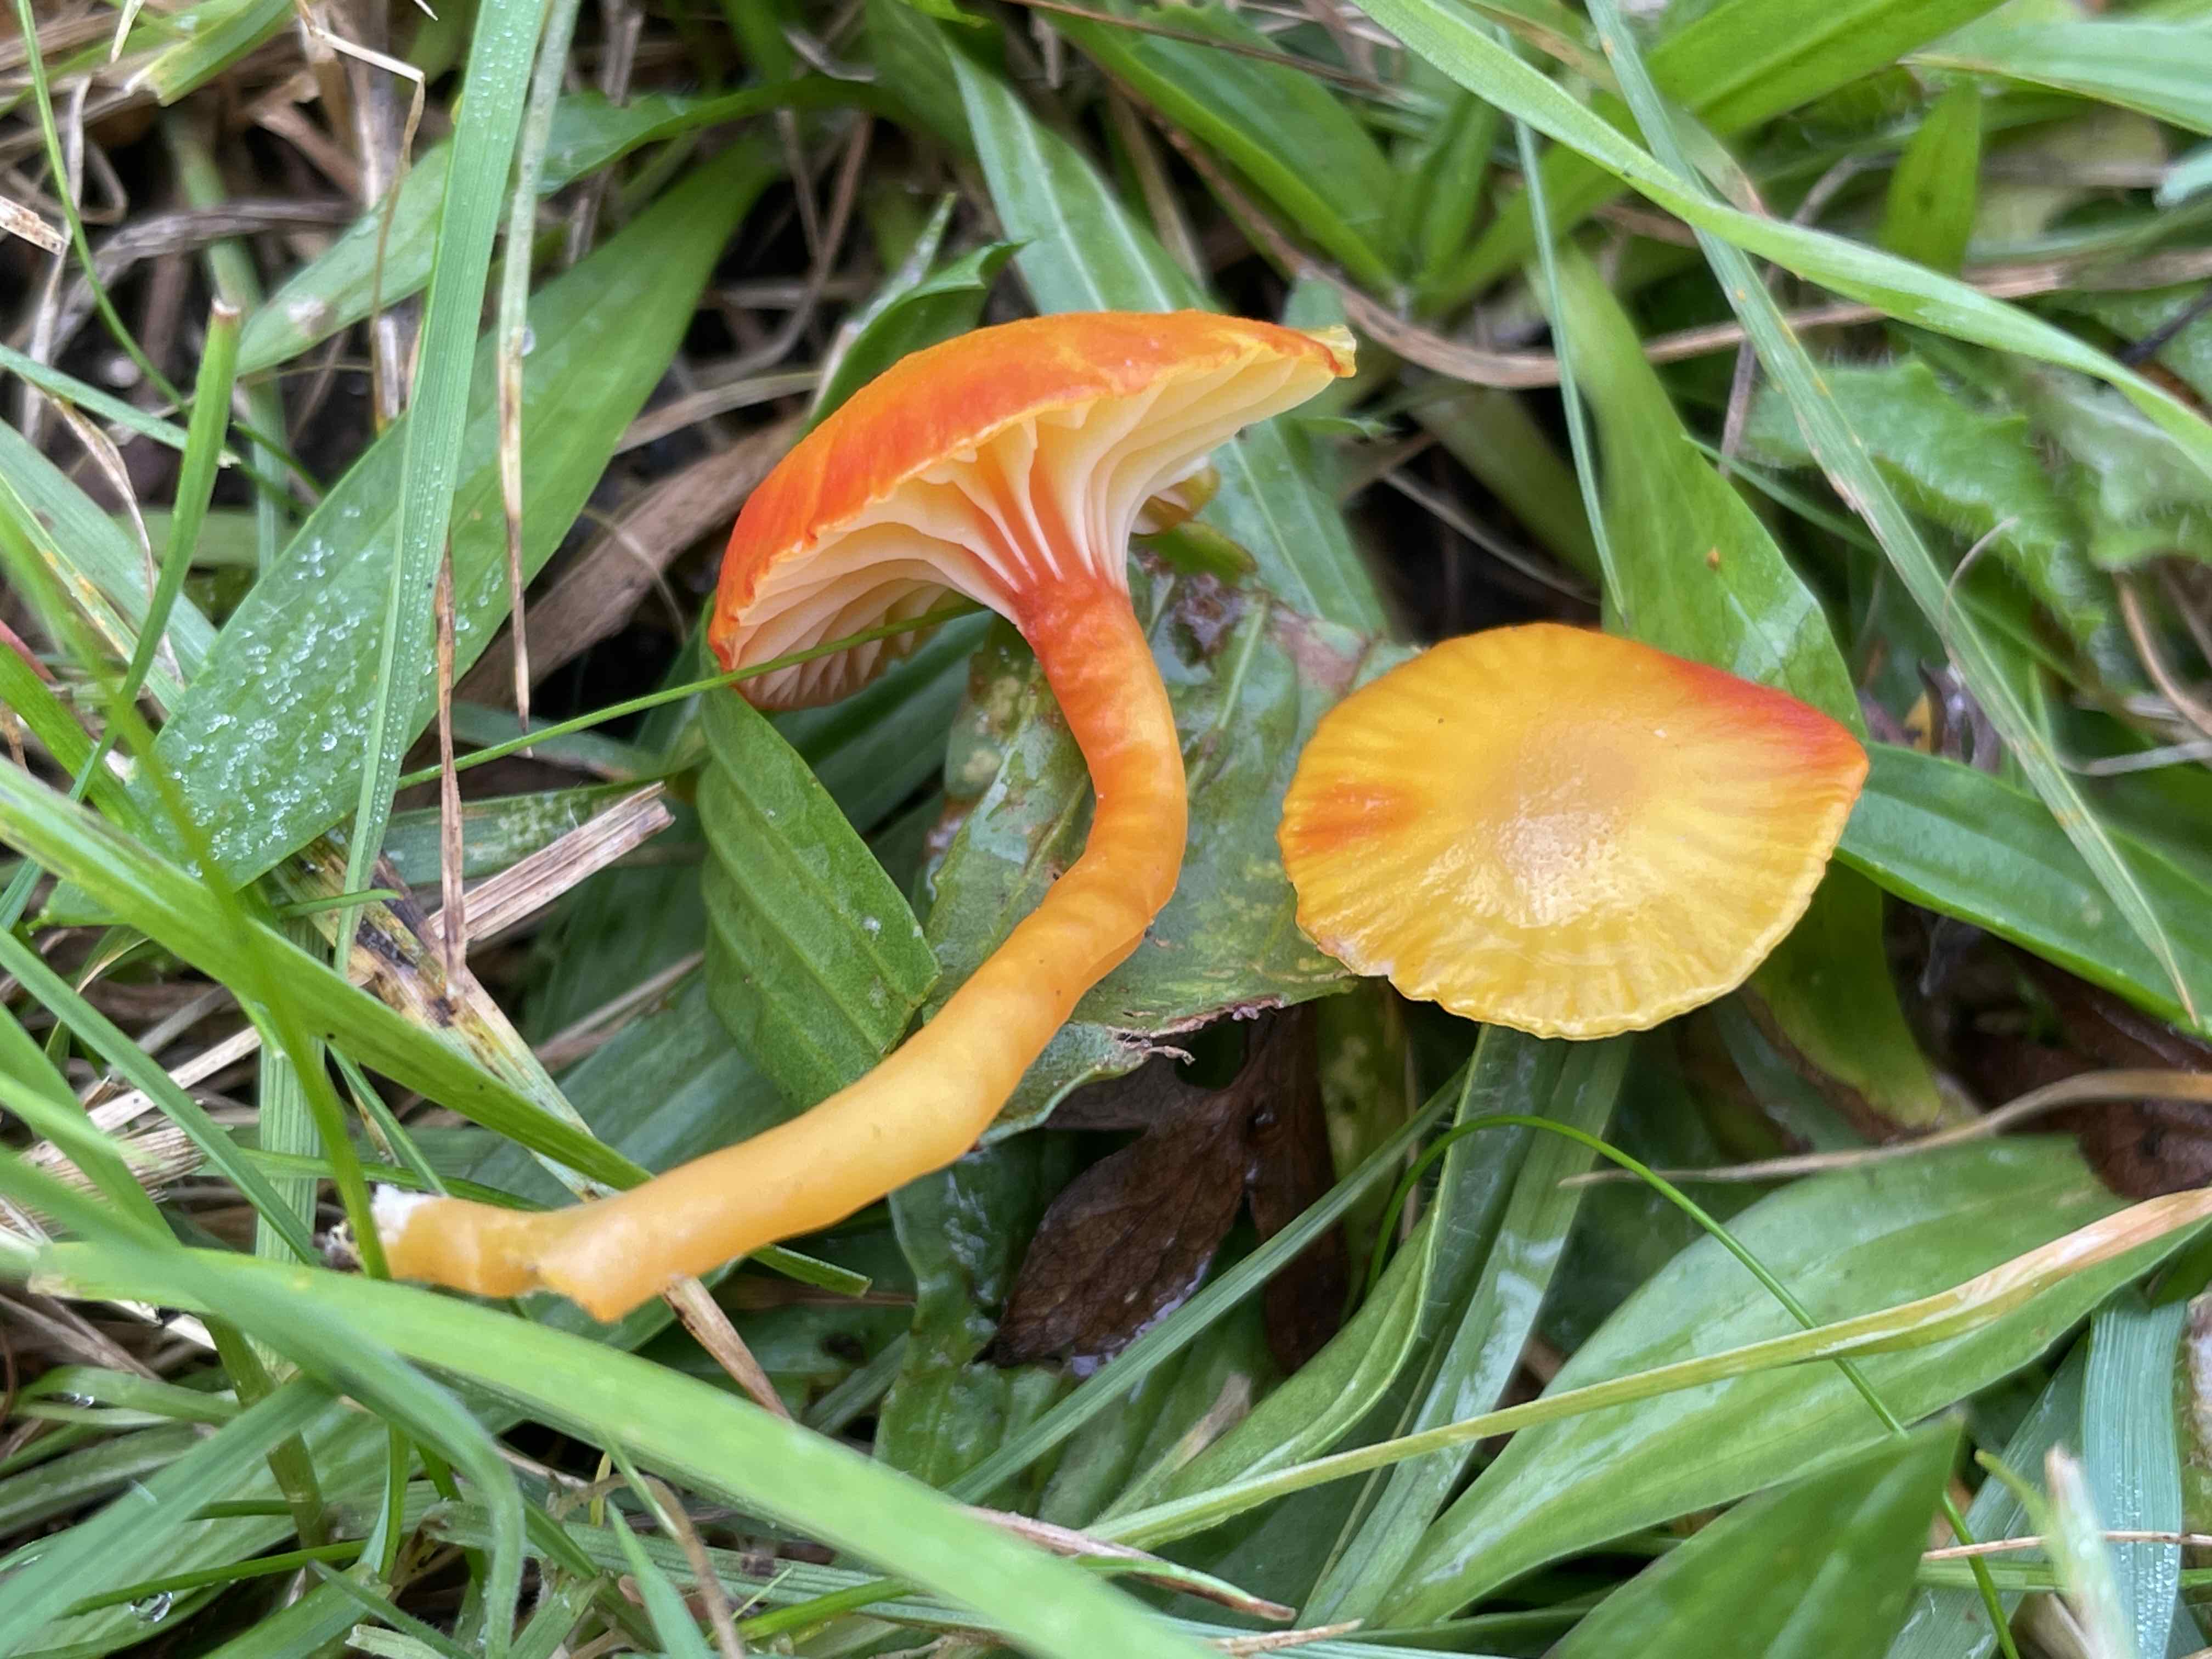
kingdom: Fungi
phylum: Basidiomycota
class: Agaricomycetes
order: Agaricales
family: Hygrophoraceae
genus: Hygrocybe
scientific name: Hygrocybe insipida
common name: liden vokshat
